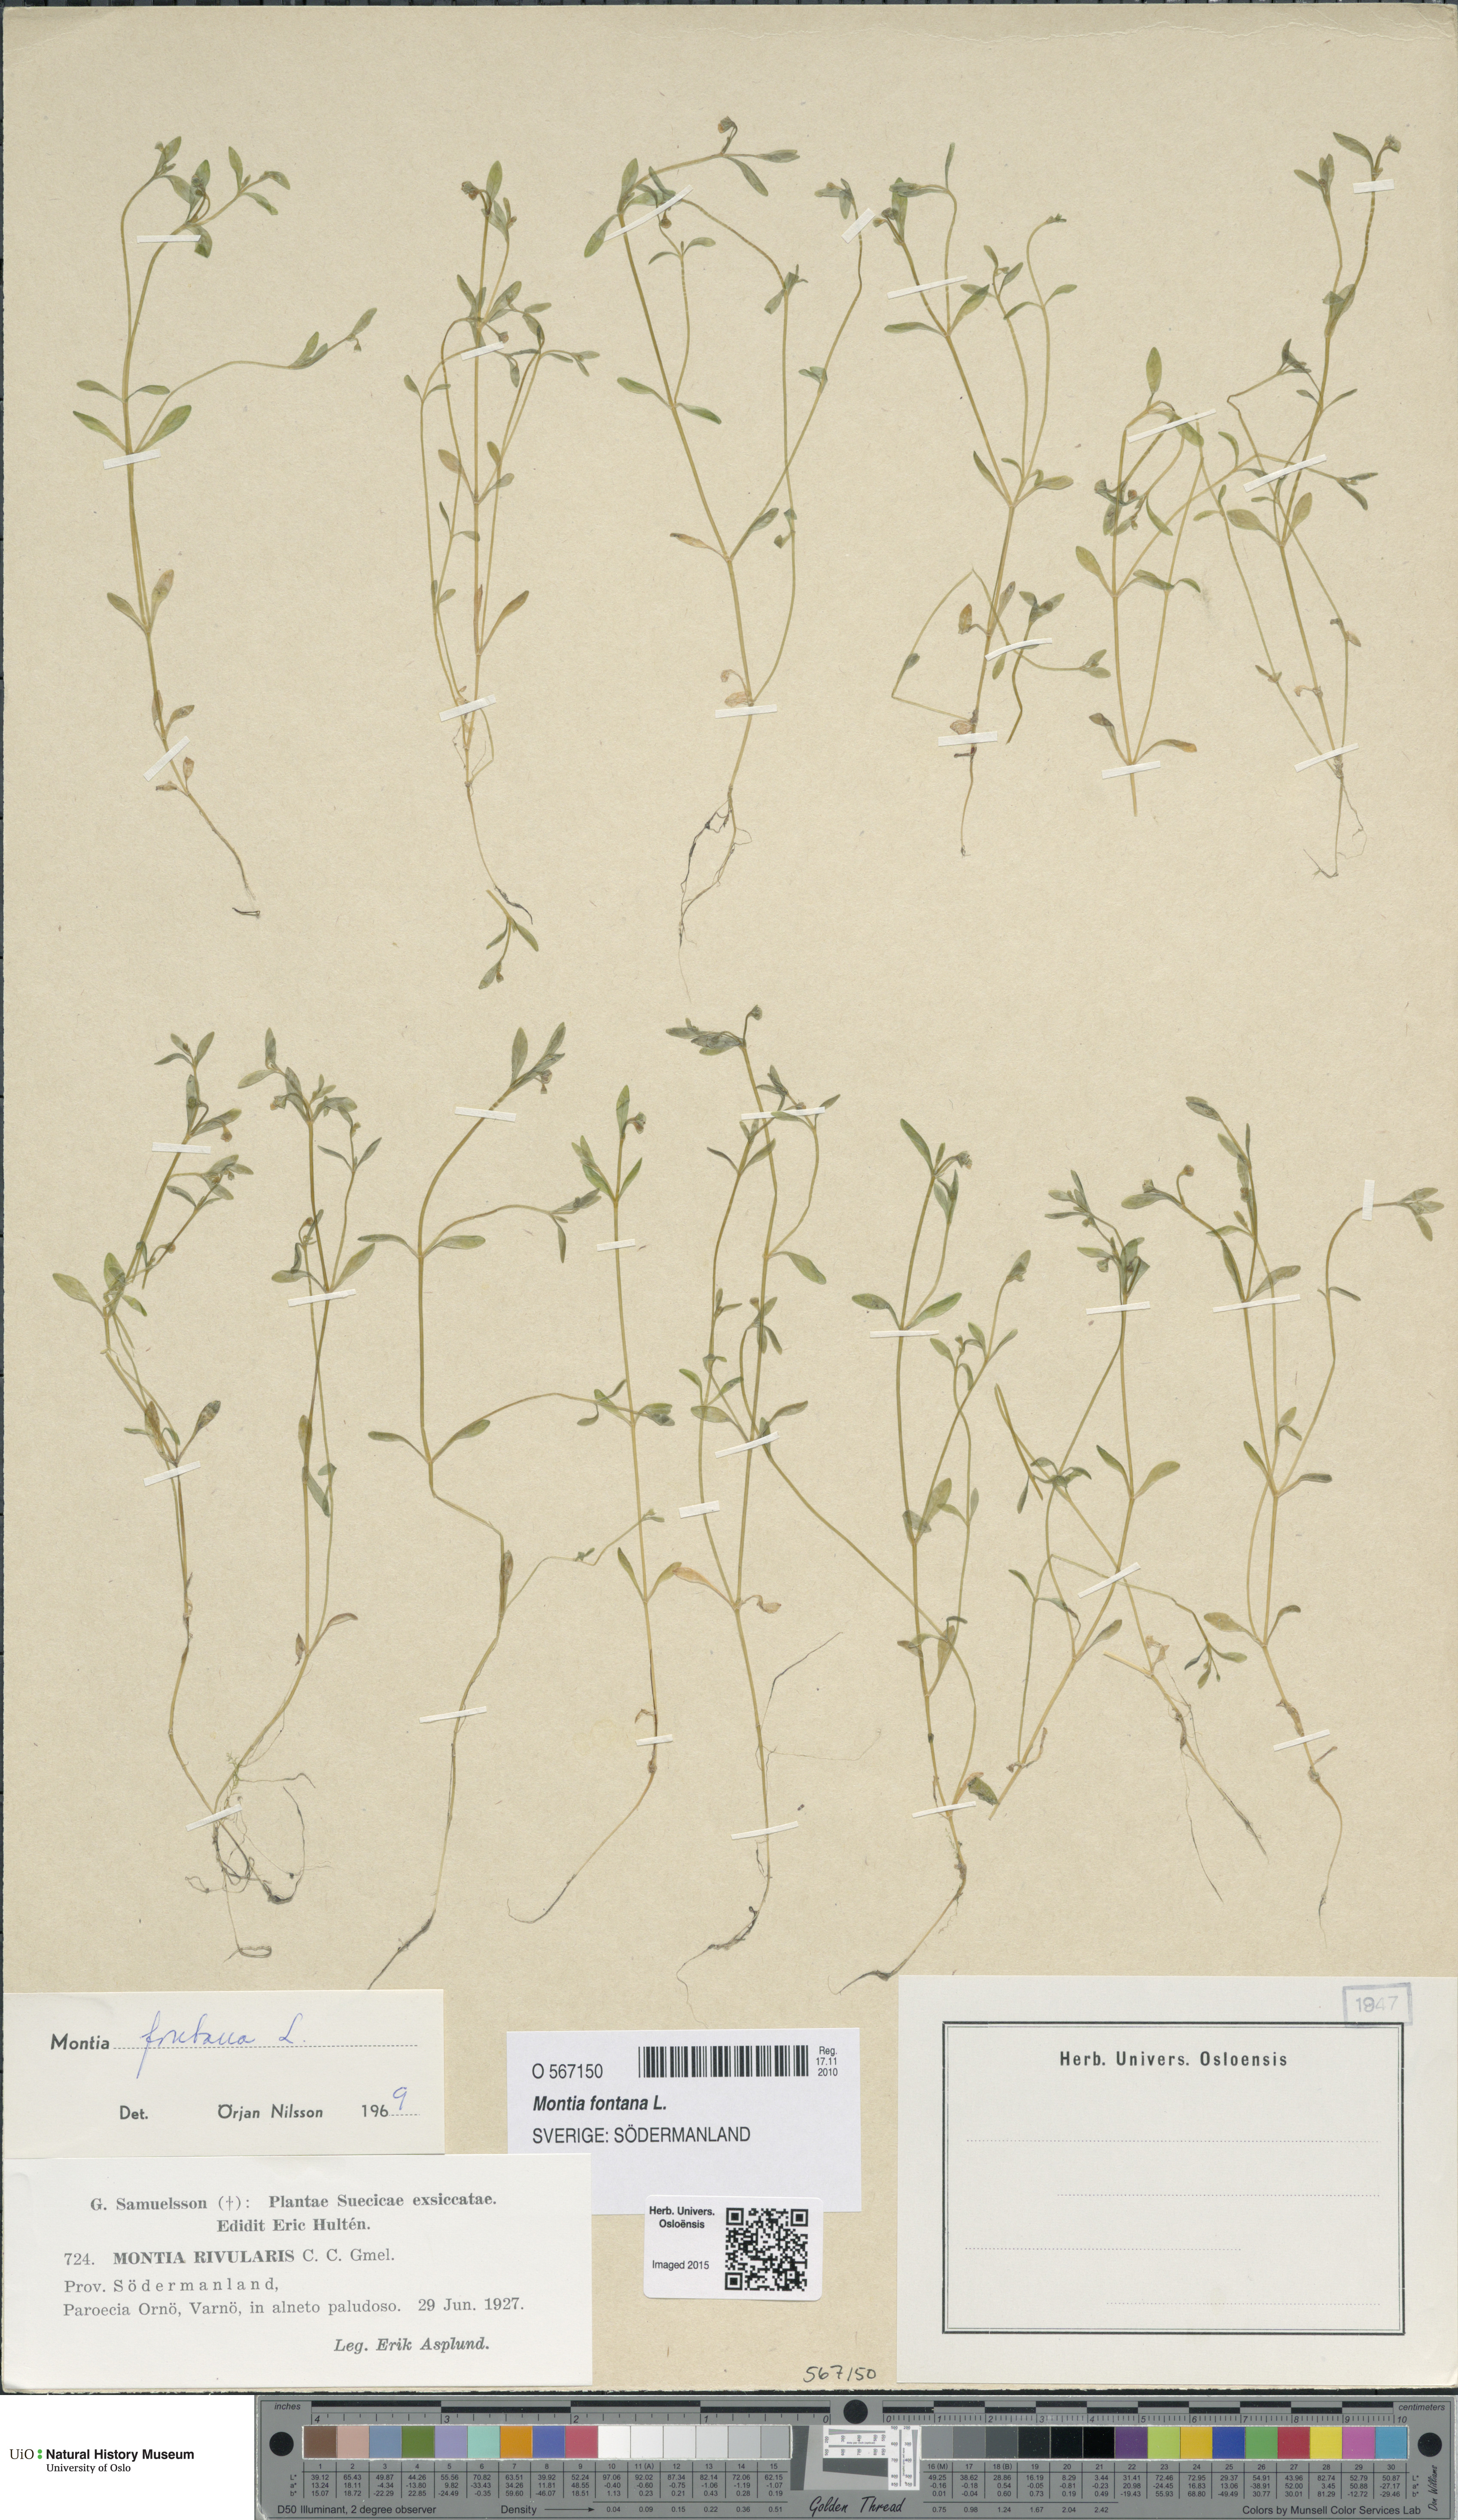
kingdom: Plantae
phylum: Tracheophyta
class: Magnoliopsida
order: Caryophyllales
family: Montiaceae
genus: Montia
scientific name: Montia fontana
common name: Blinks
